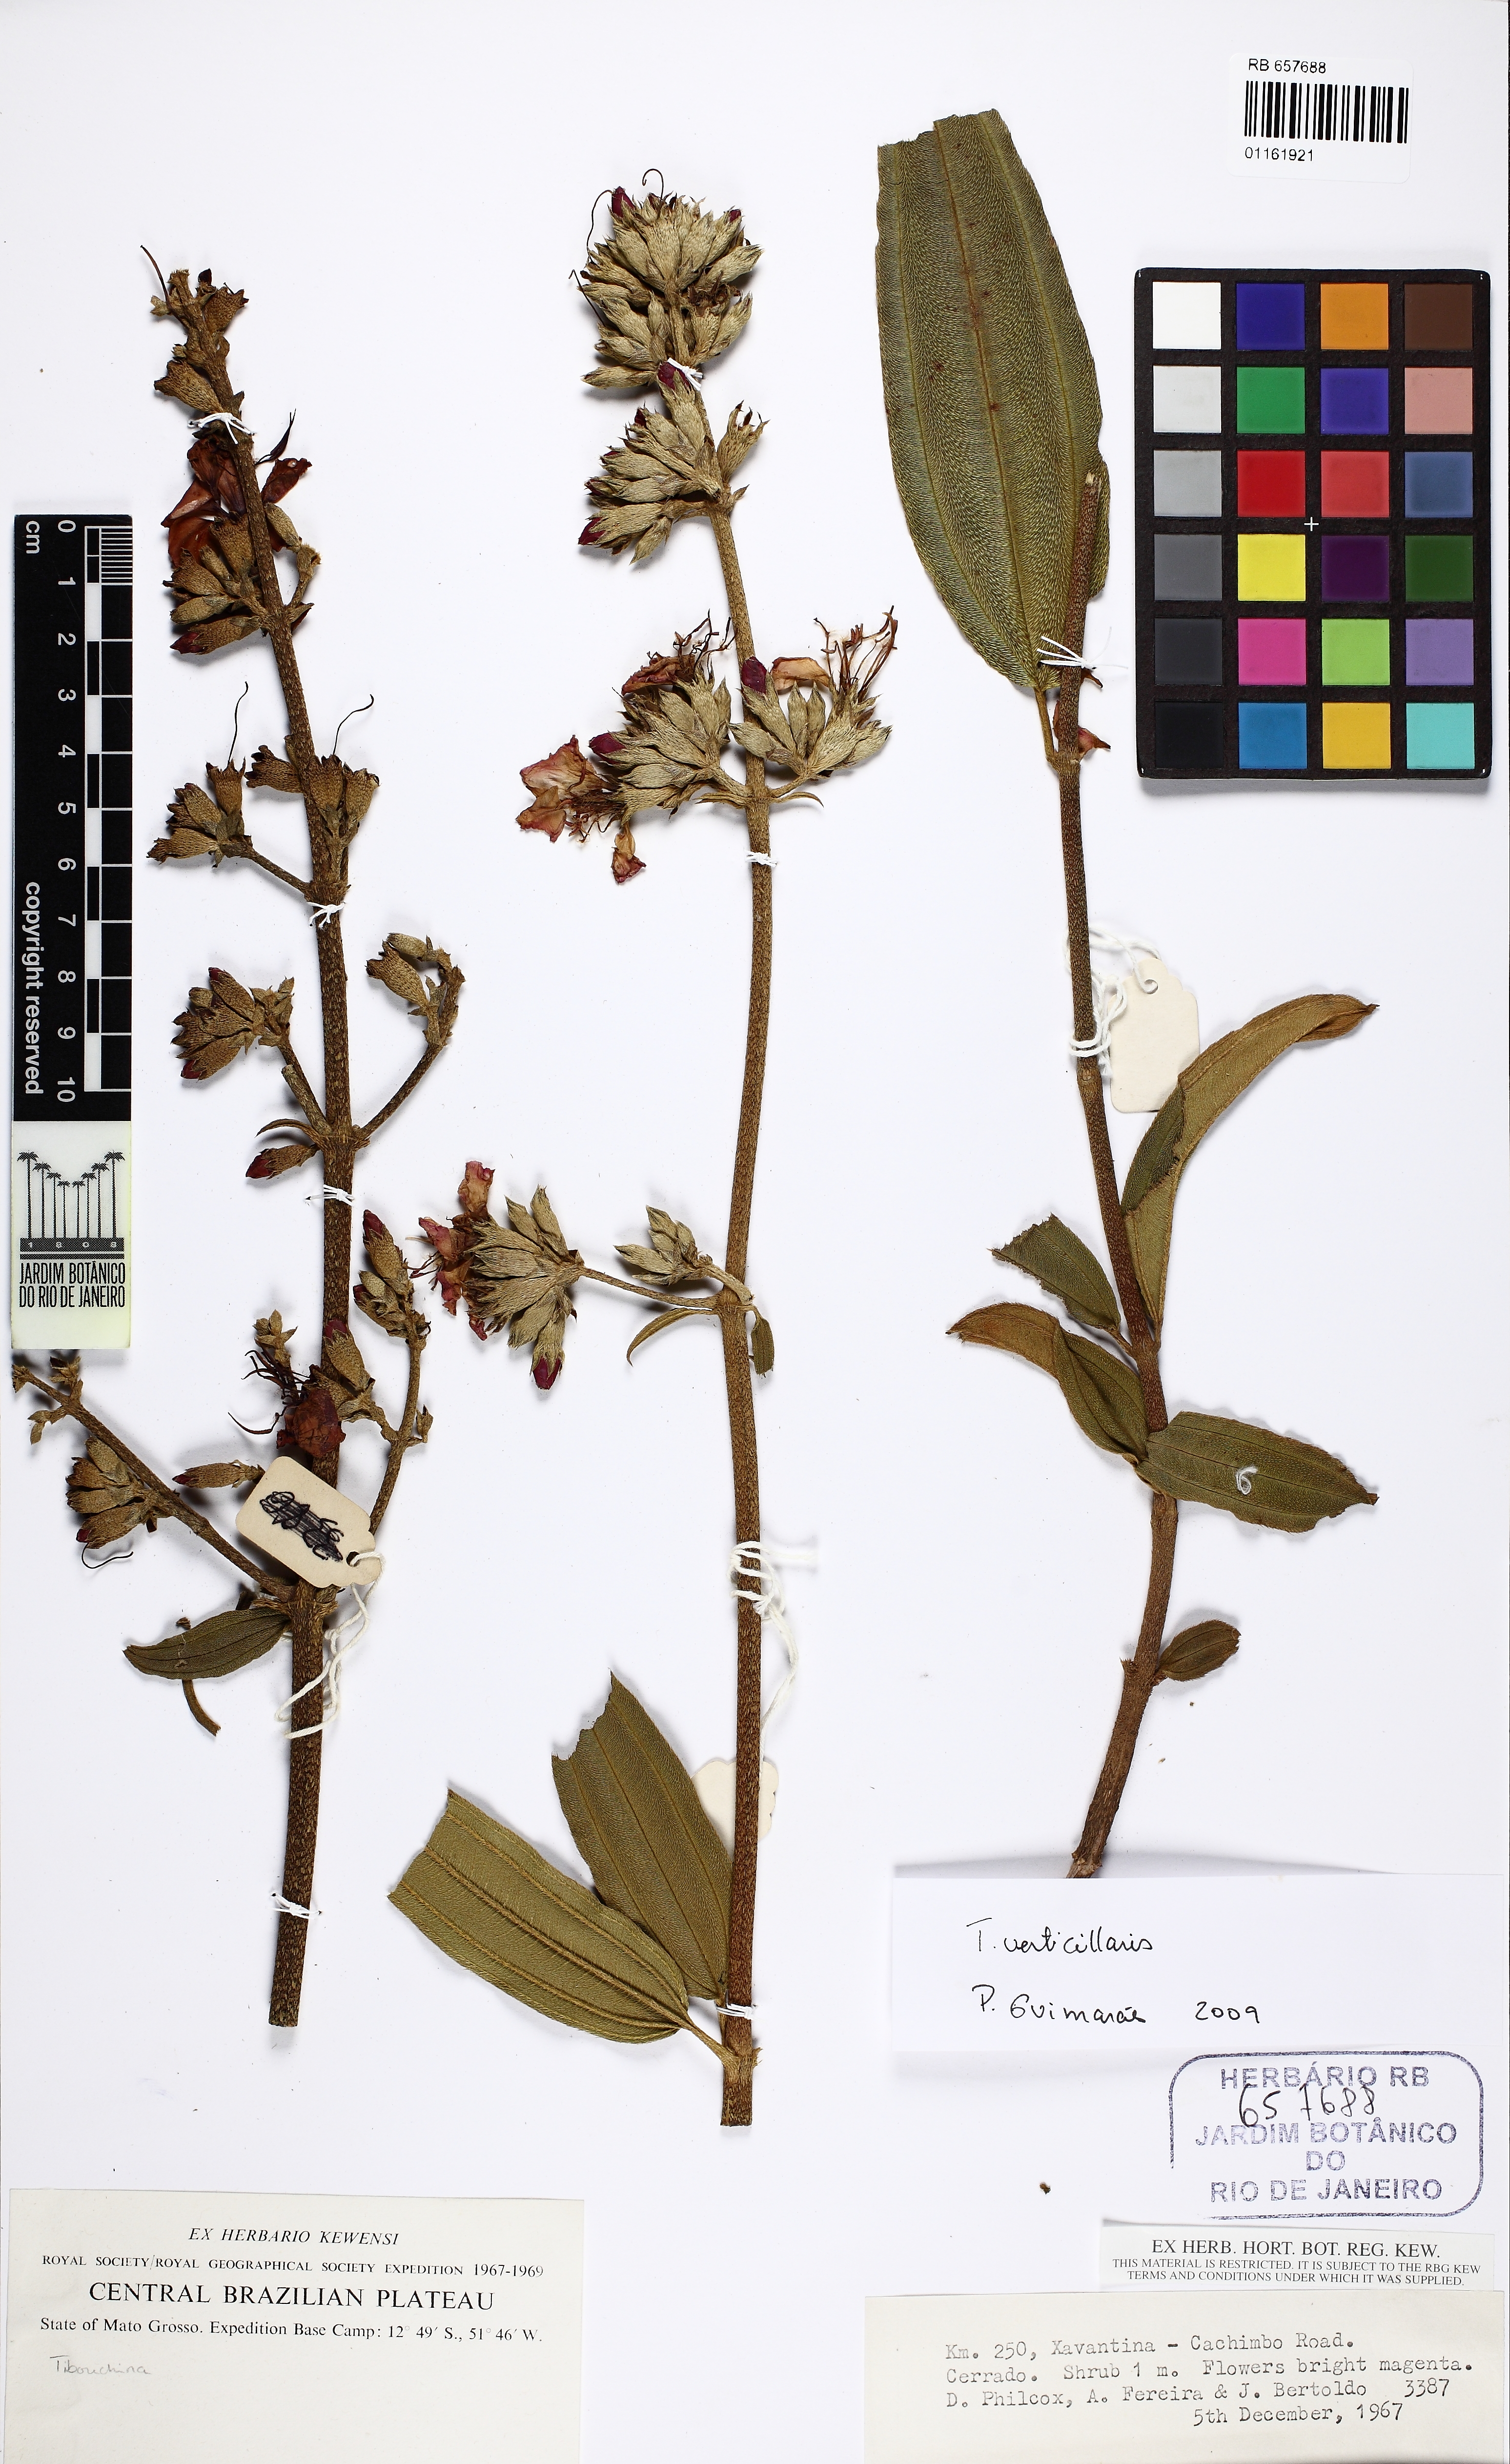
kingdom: Plantae
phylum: Tracheophyta
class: Magnoliopsida
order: Myrtales
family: Melastomataceae
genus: Pleroma
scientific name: Pleroma aegopogon
